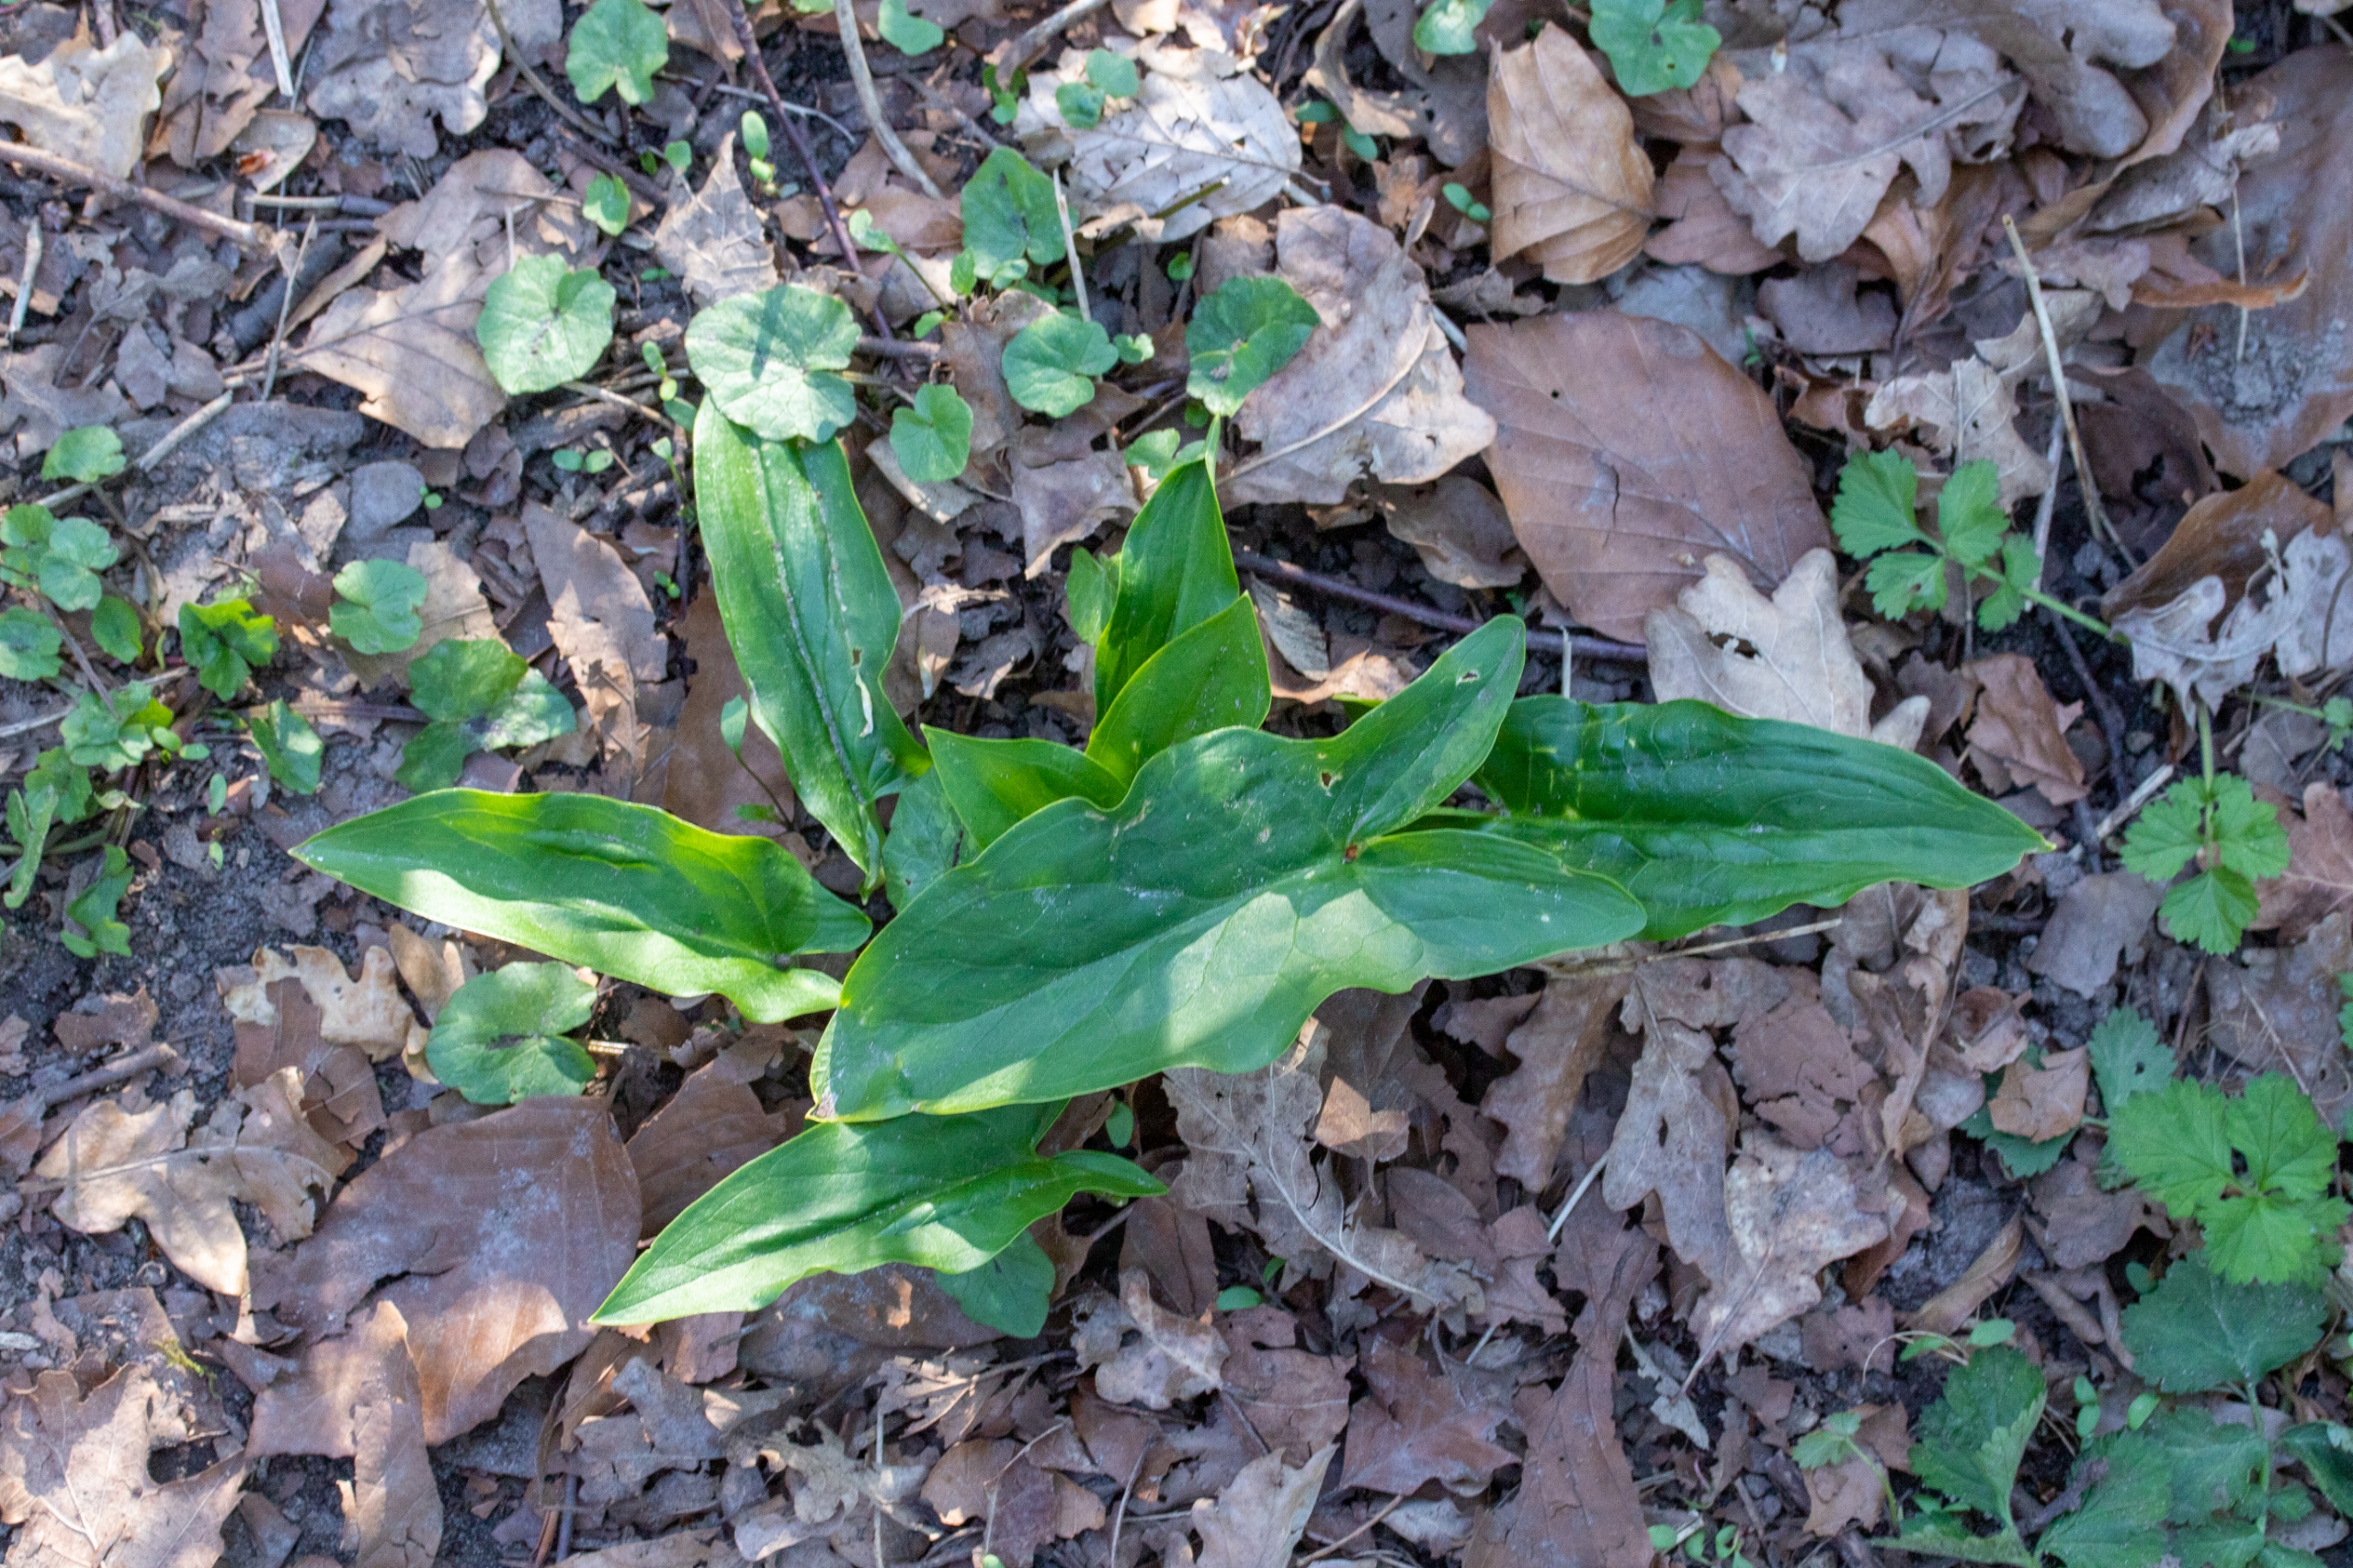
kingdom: Plantae
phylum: Tracheophyta
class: Liliopsida
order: Alismatales
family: Araceae
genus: Arum
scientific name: Arum
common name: Arumslægten
